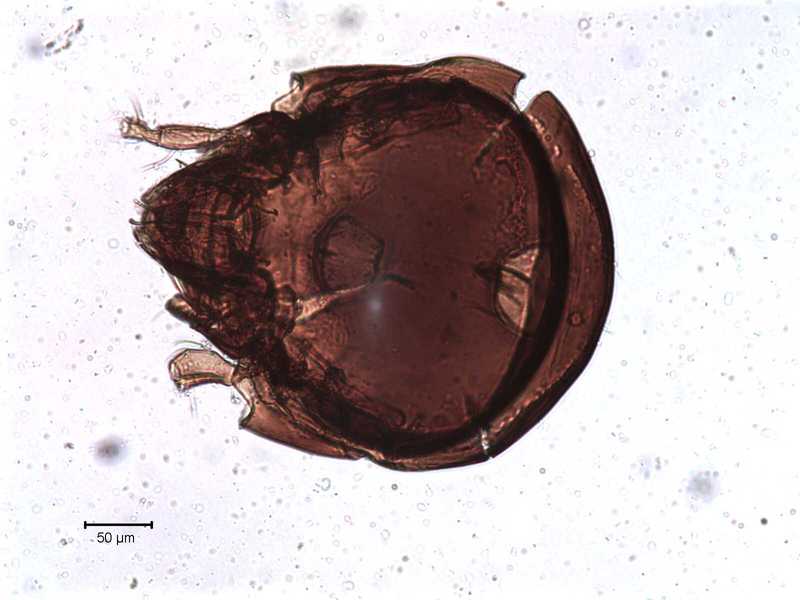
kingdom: Animalia
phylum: Arthropoda
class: Arachnida
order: Sarcoptiformes
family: Tegoribatidae
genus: Plakoribates
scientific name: Plakoribates multicuspidatus
